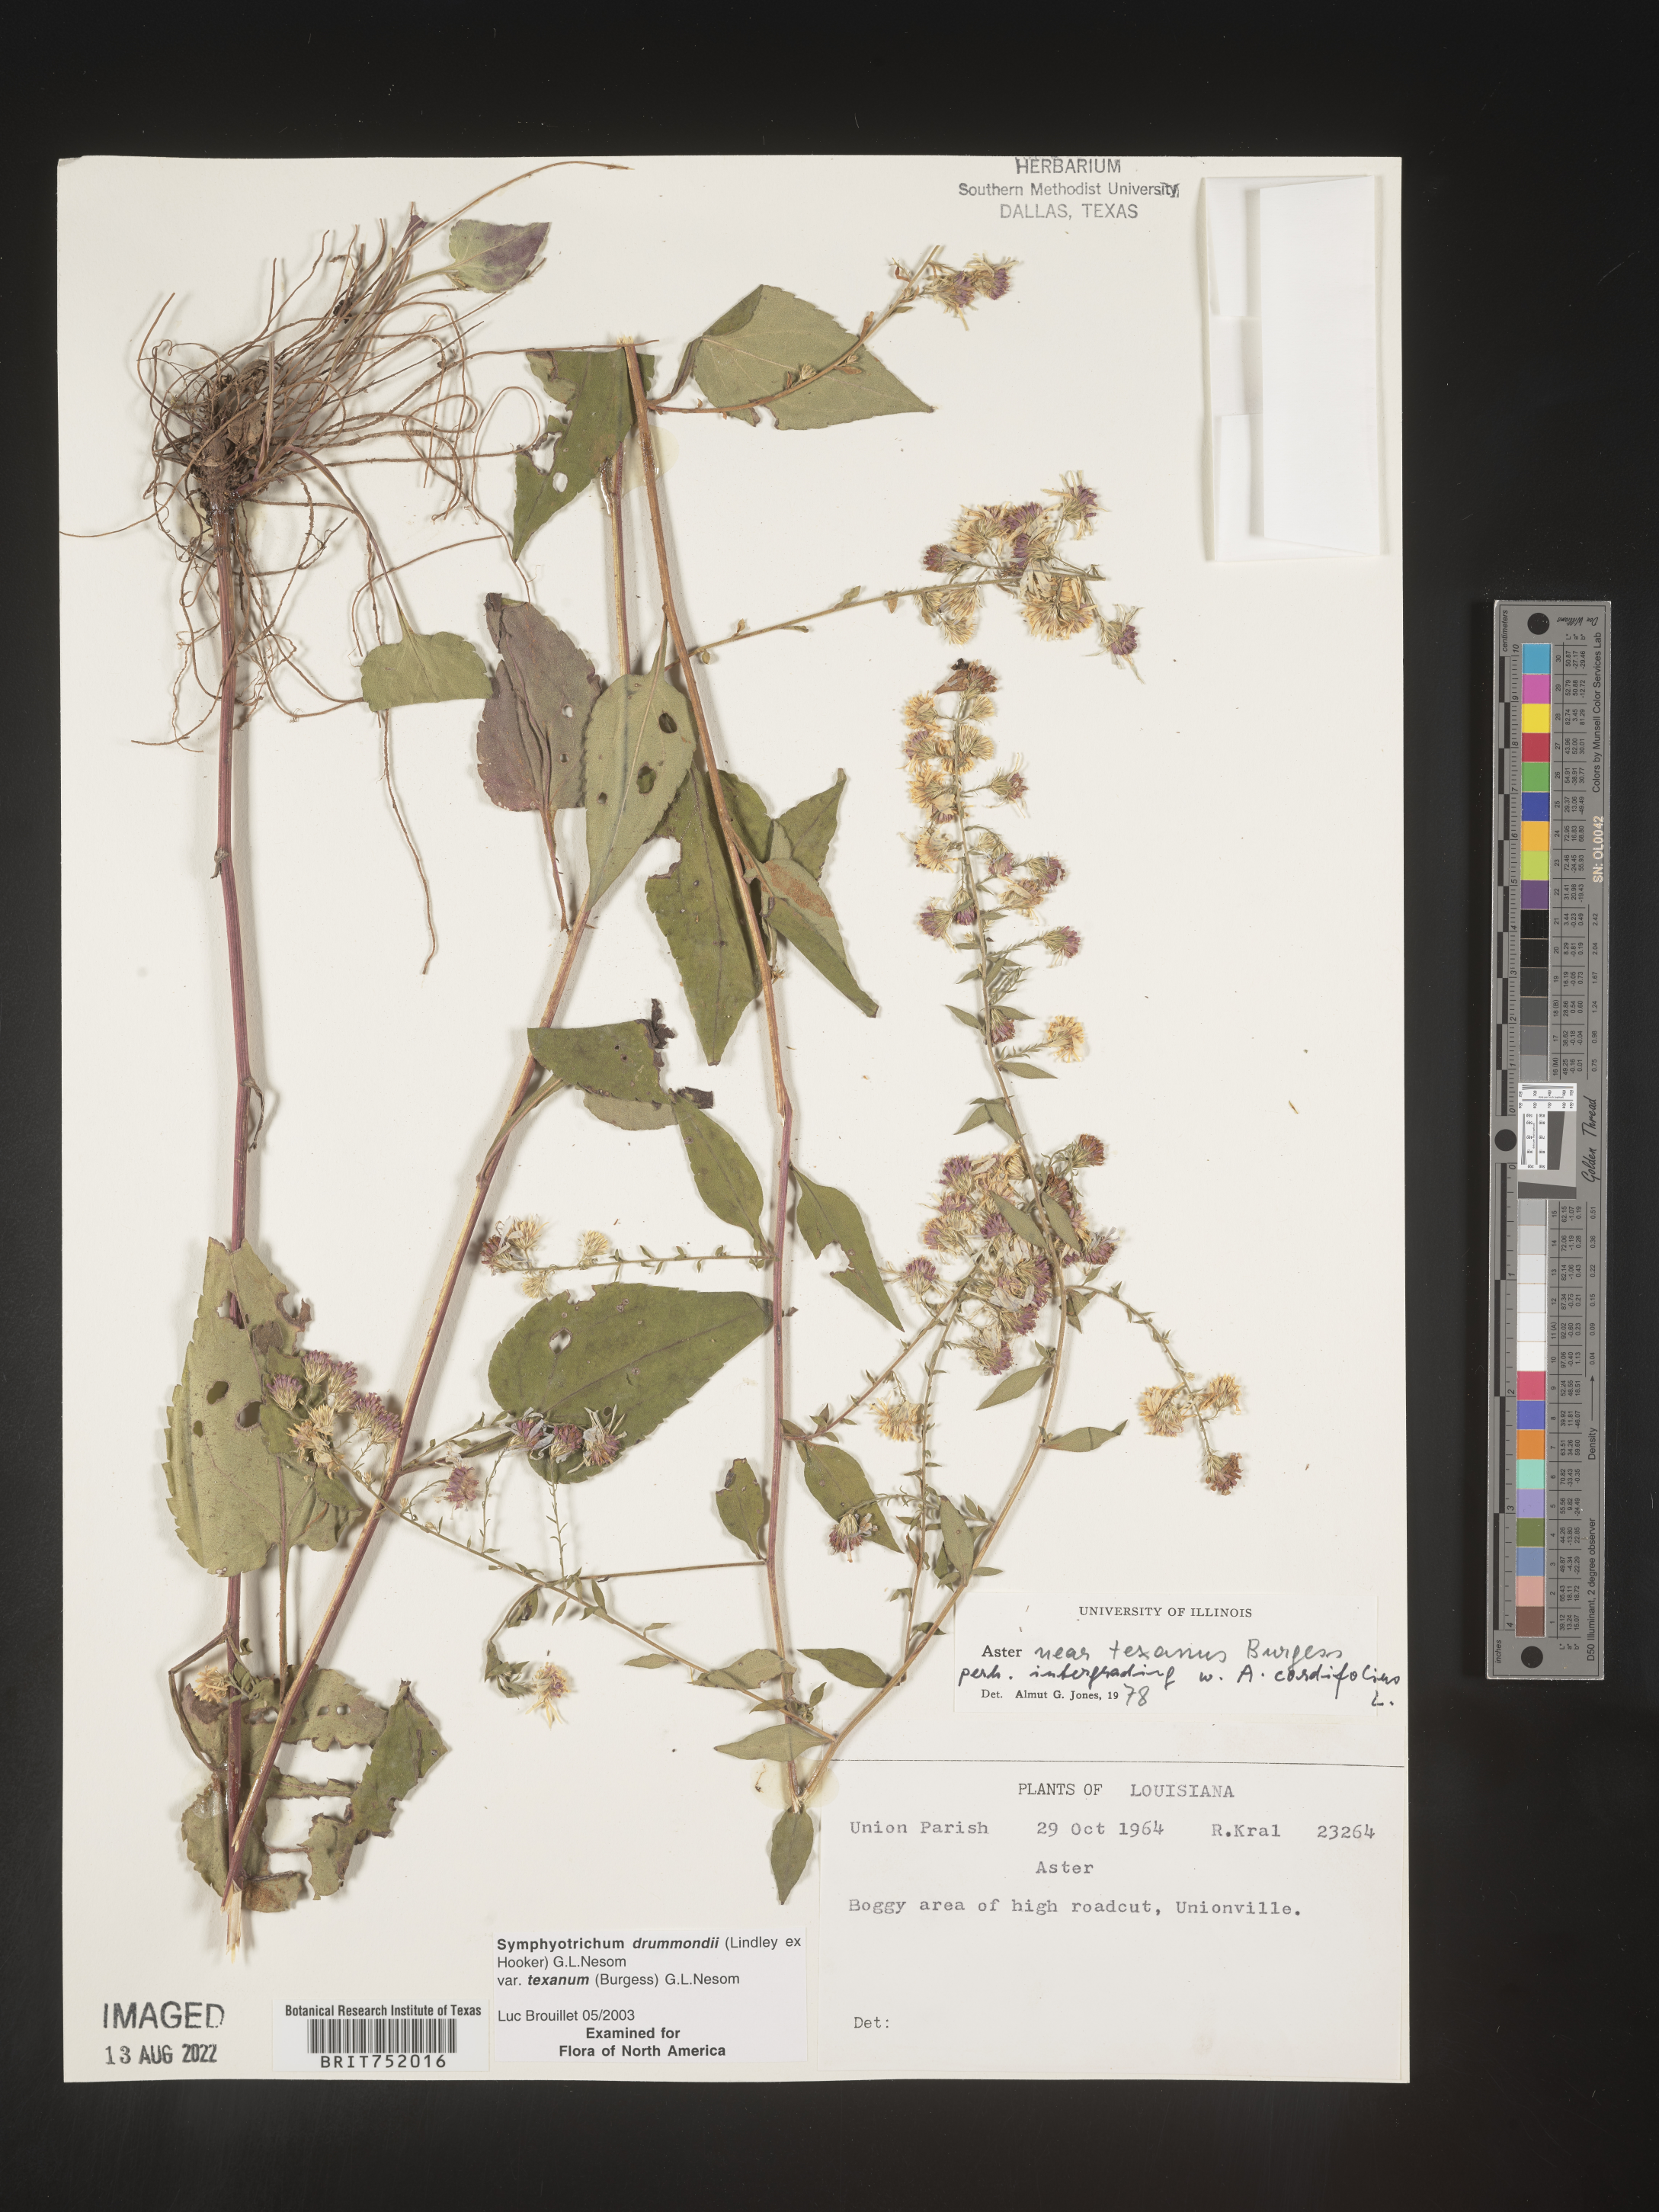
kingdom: Plantae
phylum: Tracheophyta
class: Magnoliopsida
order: Asterales
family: Asteraceae
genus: Symphyotrichum
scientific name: Symphyotrichum drummondii
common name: Drummond's aster
